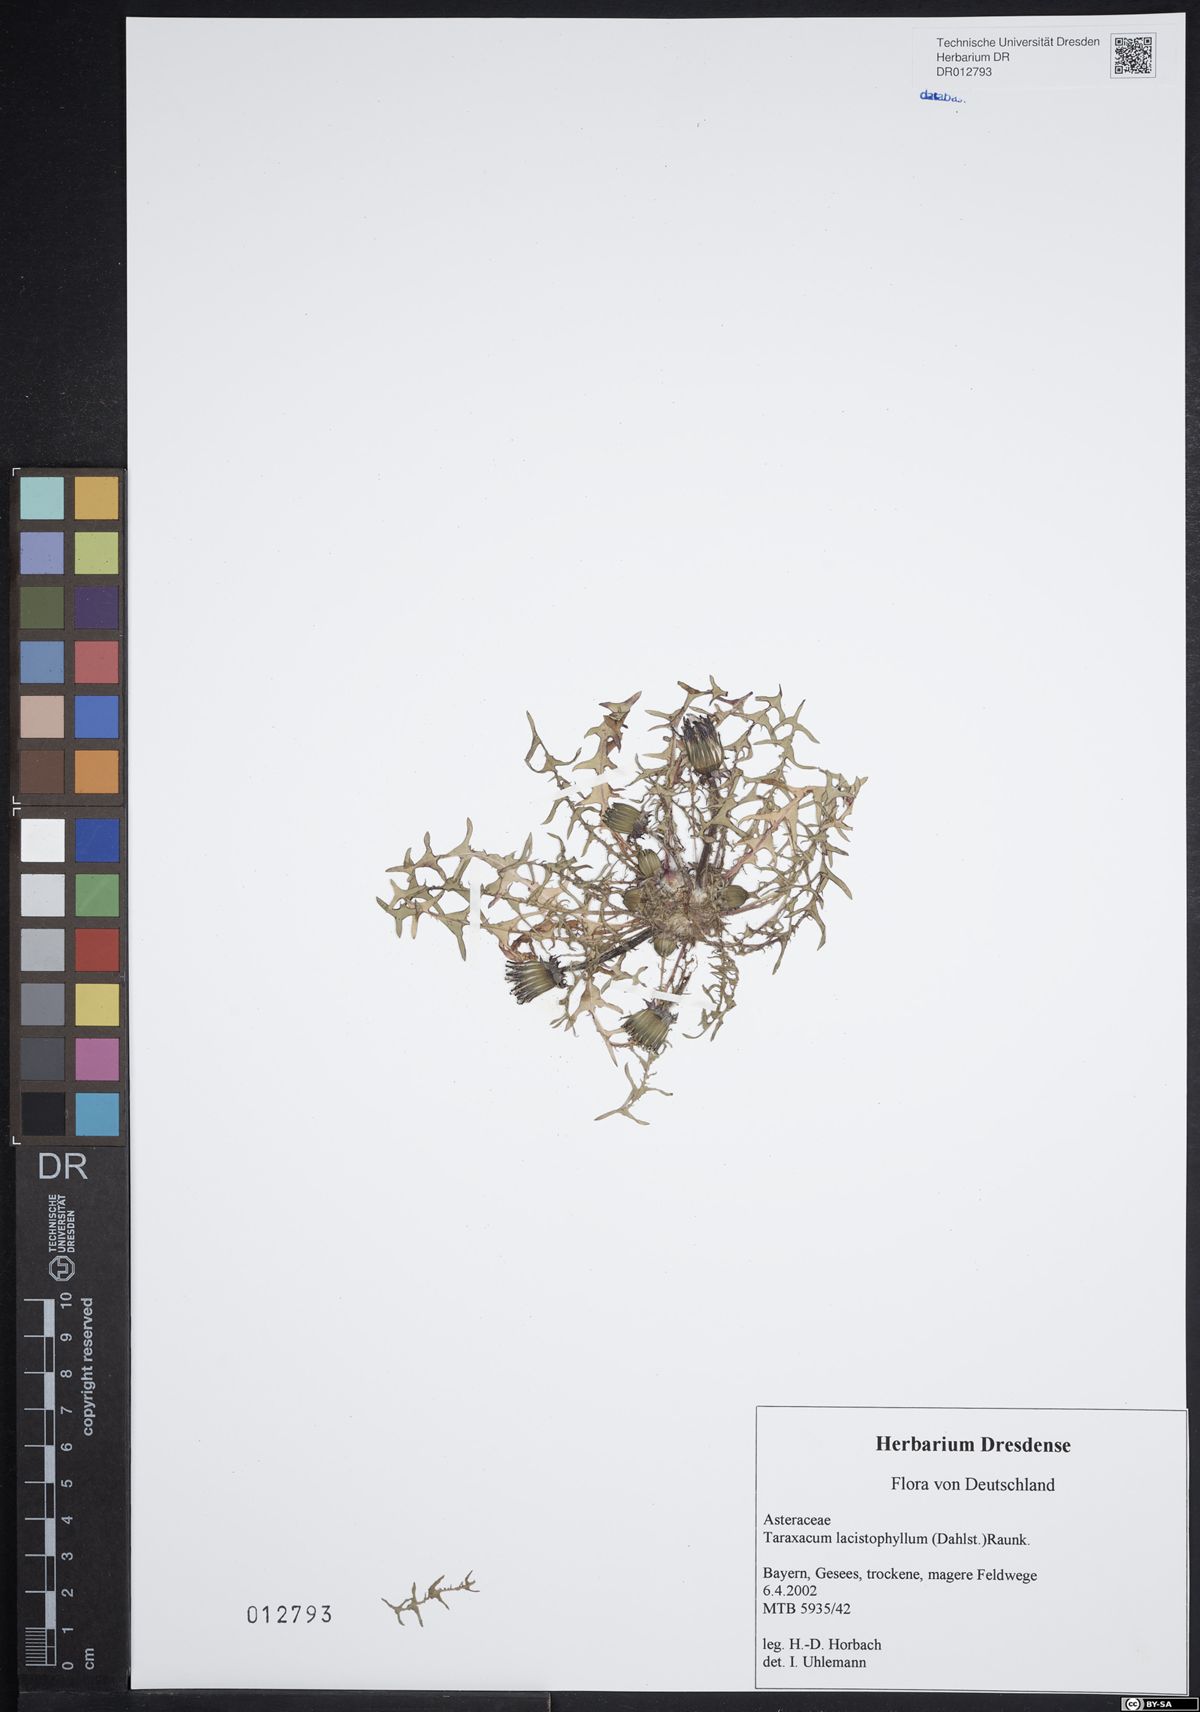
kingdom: Plantae
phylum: Tracheophyta
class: Magnoliopsida
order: Asterales
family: Asteraceae
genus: Taraxacum
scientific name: Taraxacum lacistophyllum
